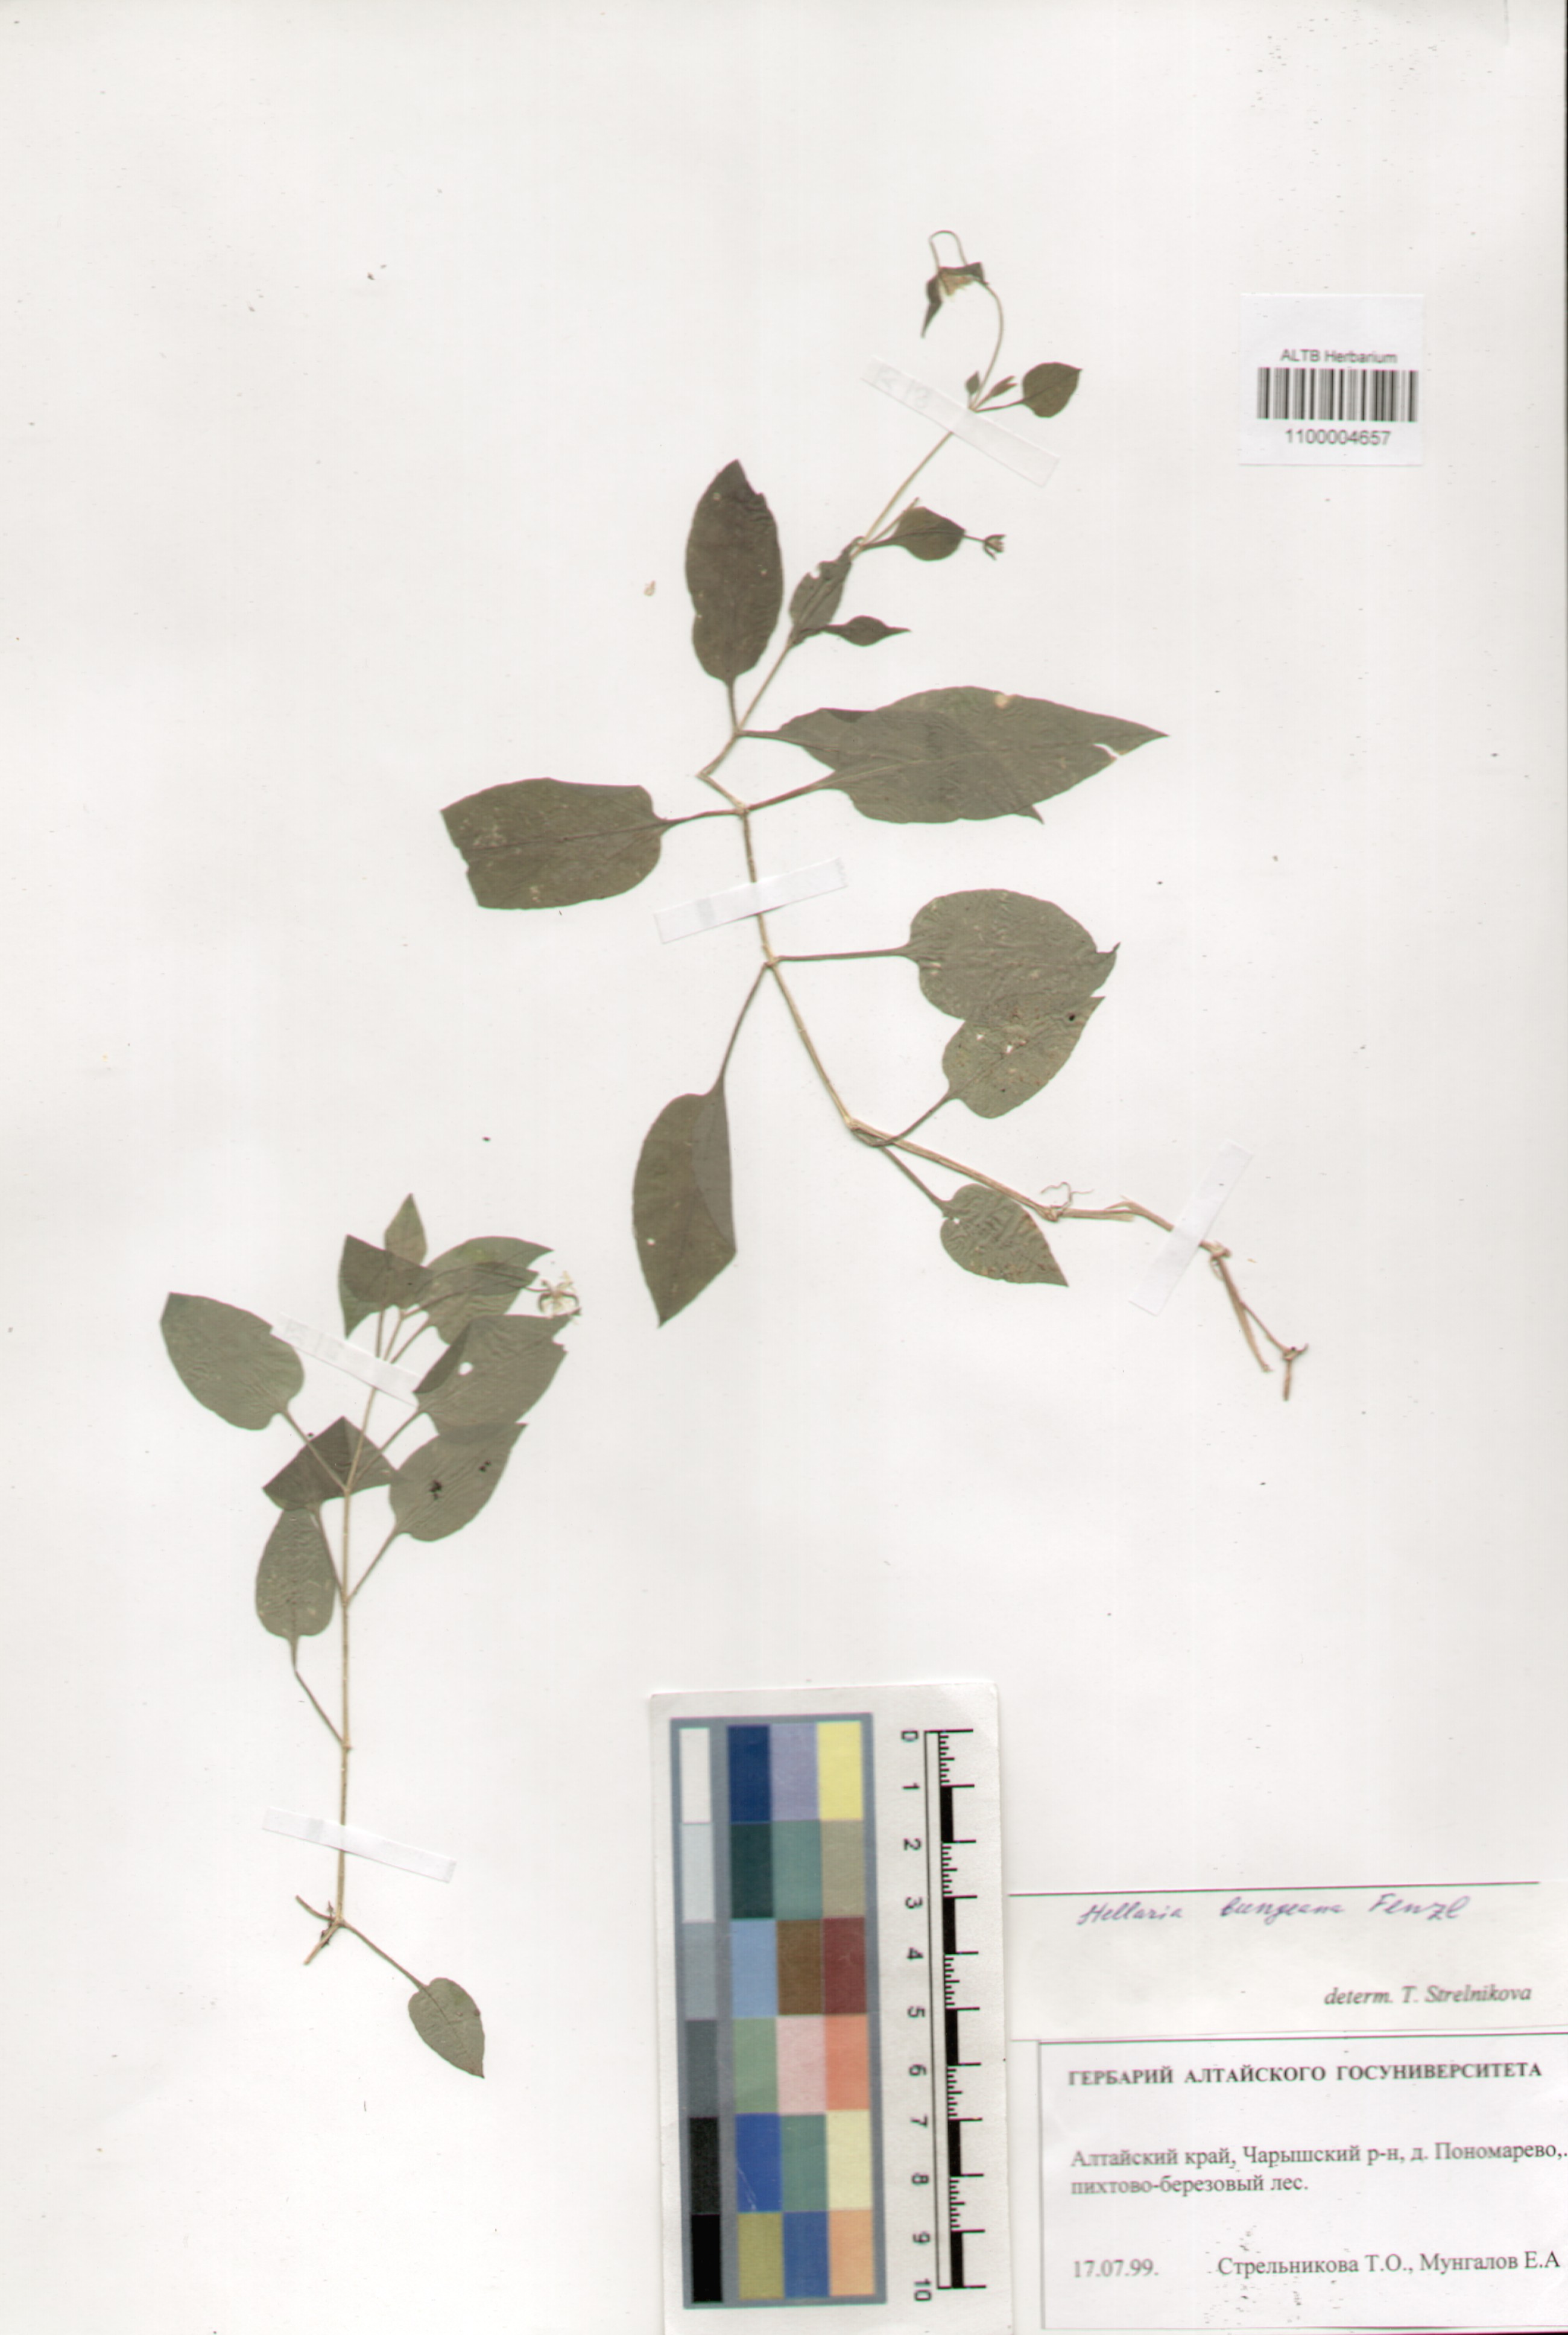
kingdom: Plantae
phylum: Tracheophyta
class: Magnoliopsida
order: Caryophyllales
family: Caryophyllaceae
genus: Stellaria
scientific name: Stellaria bungeana
